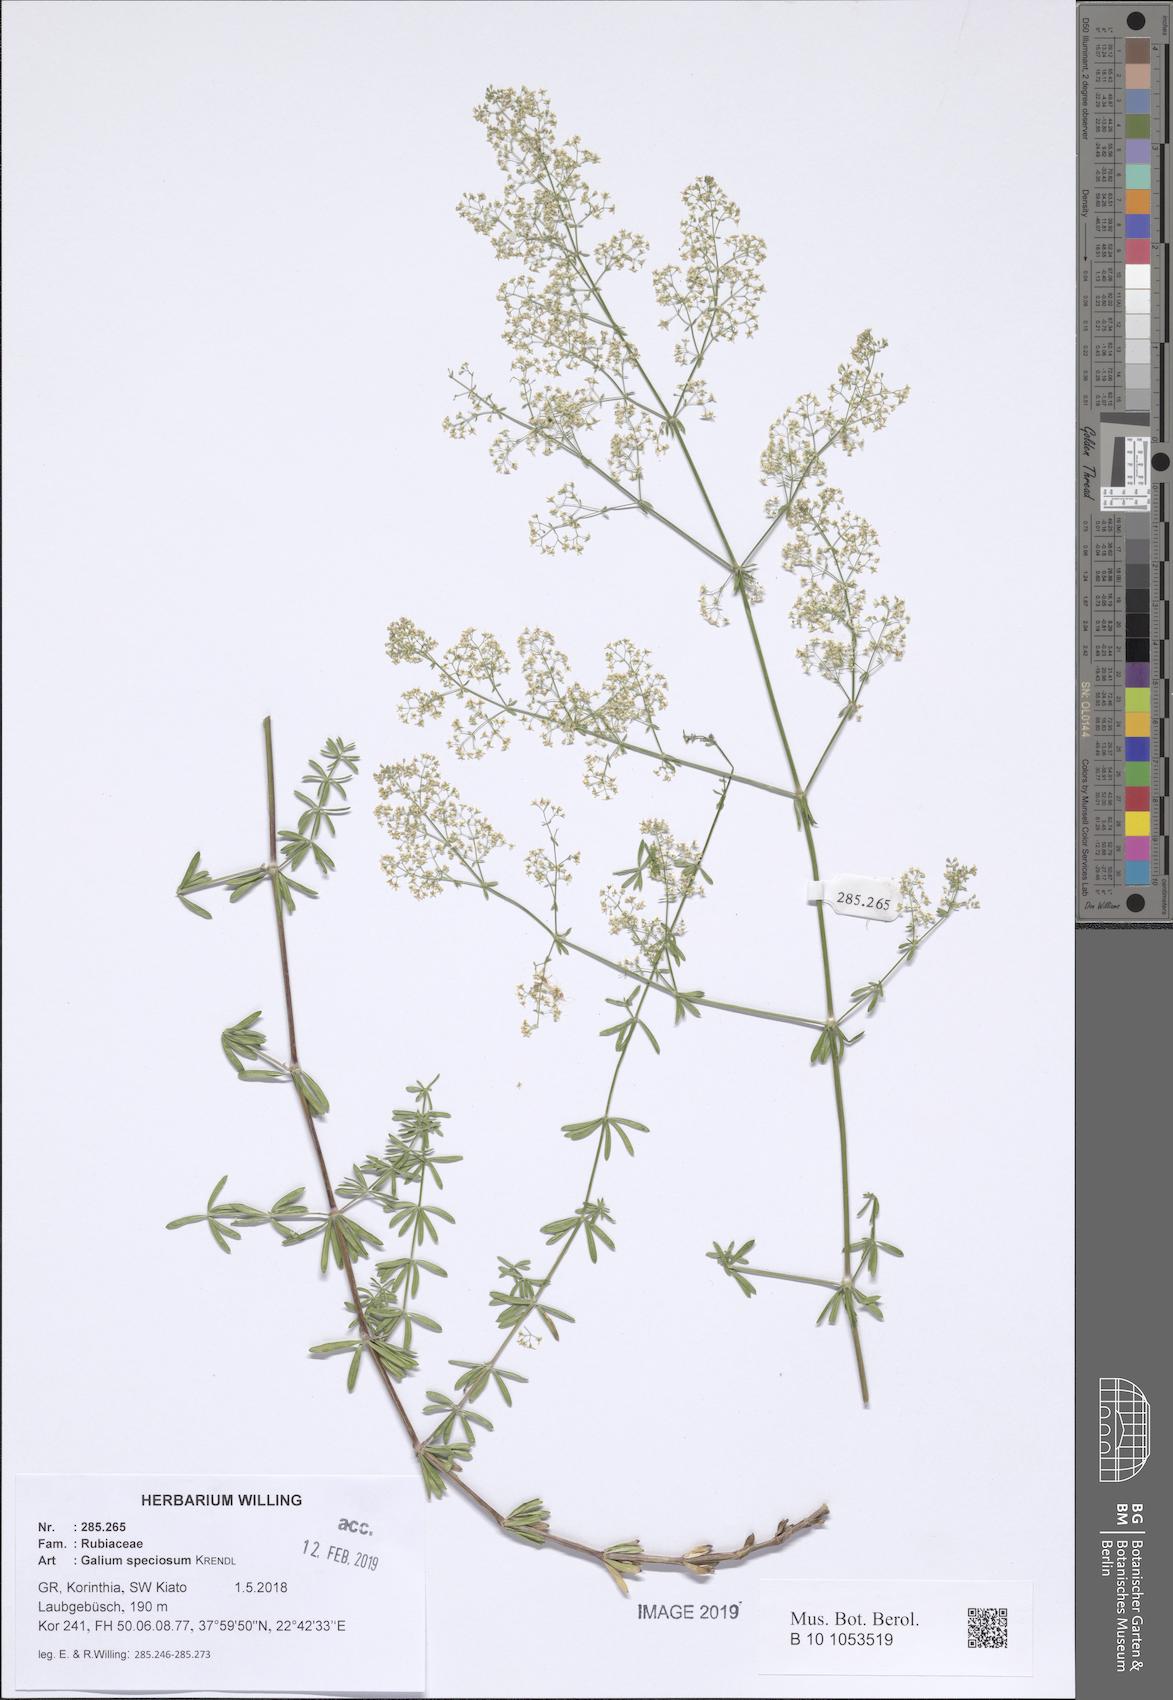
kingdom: Plantae
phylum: Tracheophyta
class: Magnoliopsida
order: Gentianales
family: Rubiaceae
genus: Galium
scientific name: Galium speciosum
